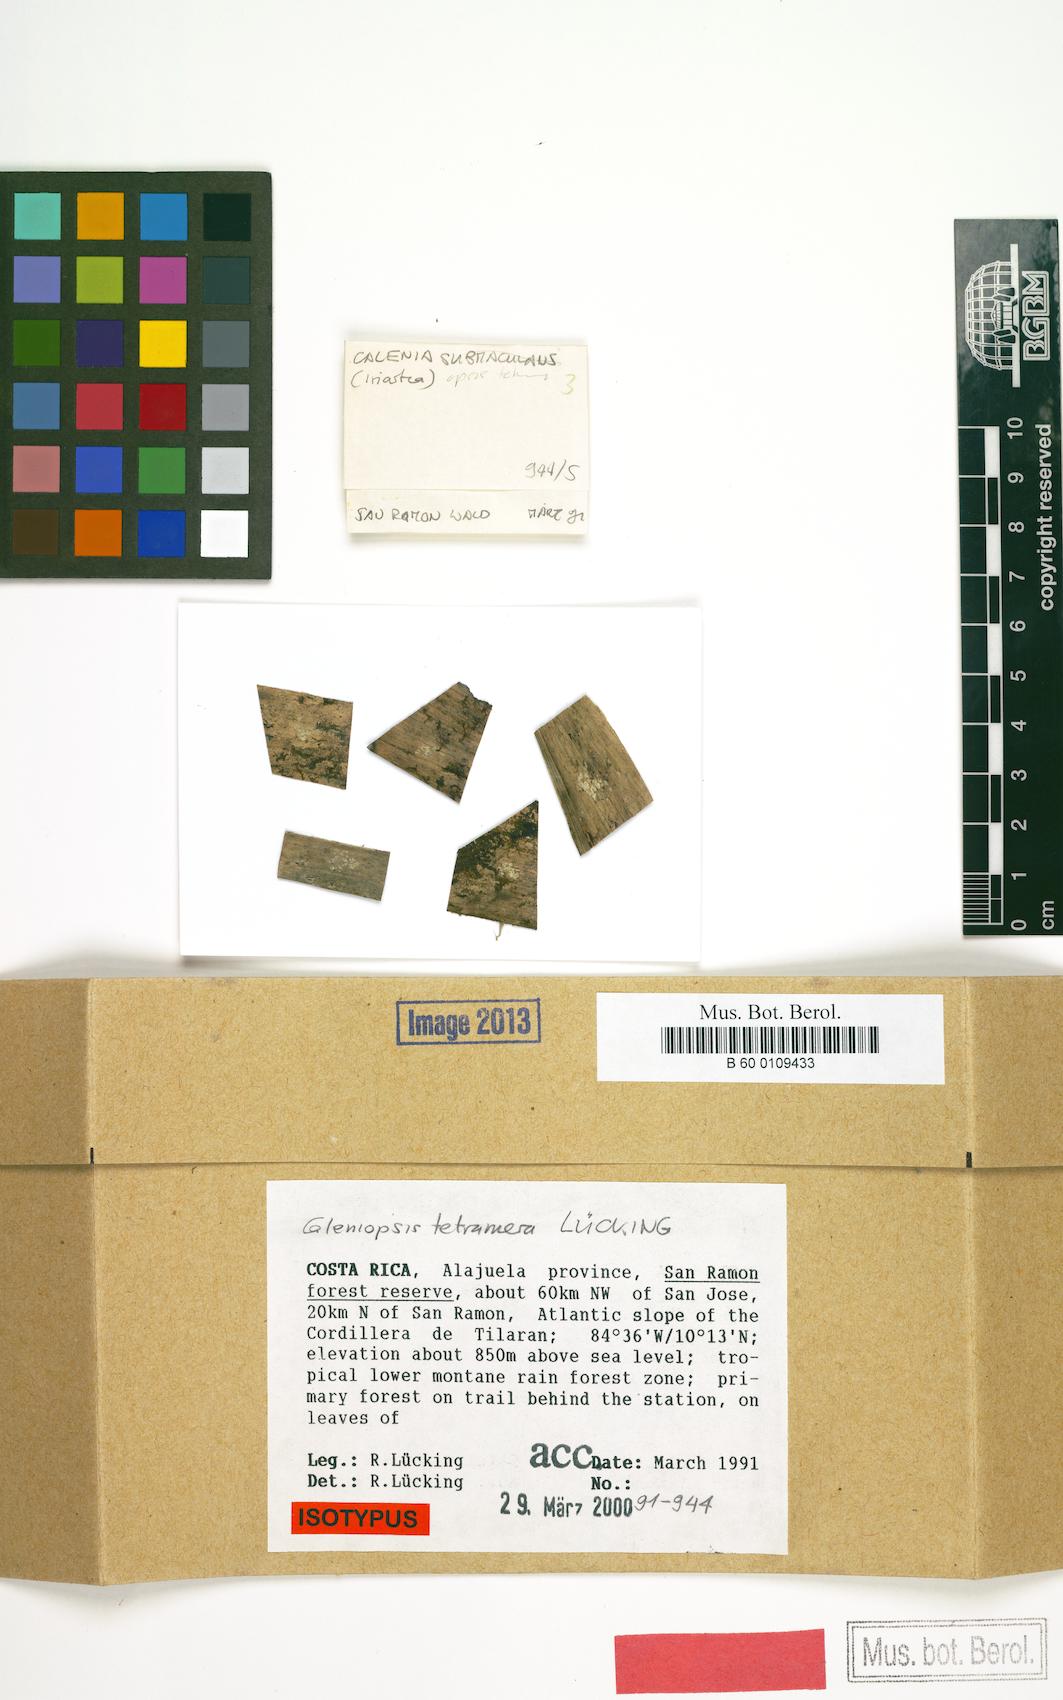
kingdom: Fungi
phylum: Ascomycota
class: Lecanoromycetes
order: Ostropales
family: Gomphillaceae
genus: Calenia
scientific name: Calenia
